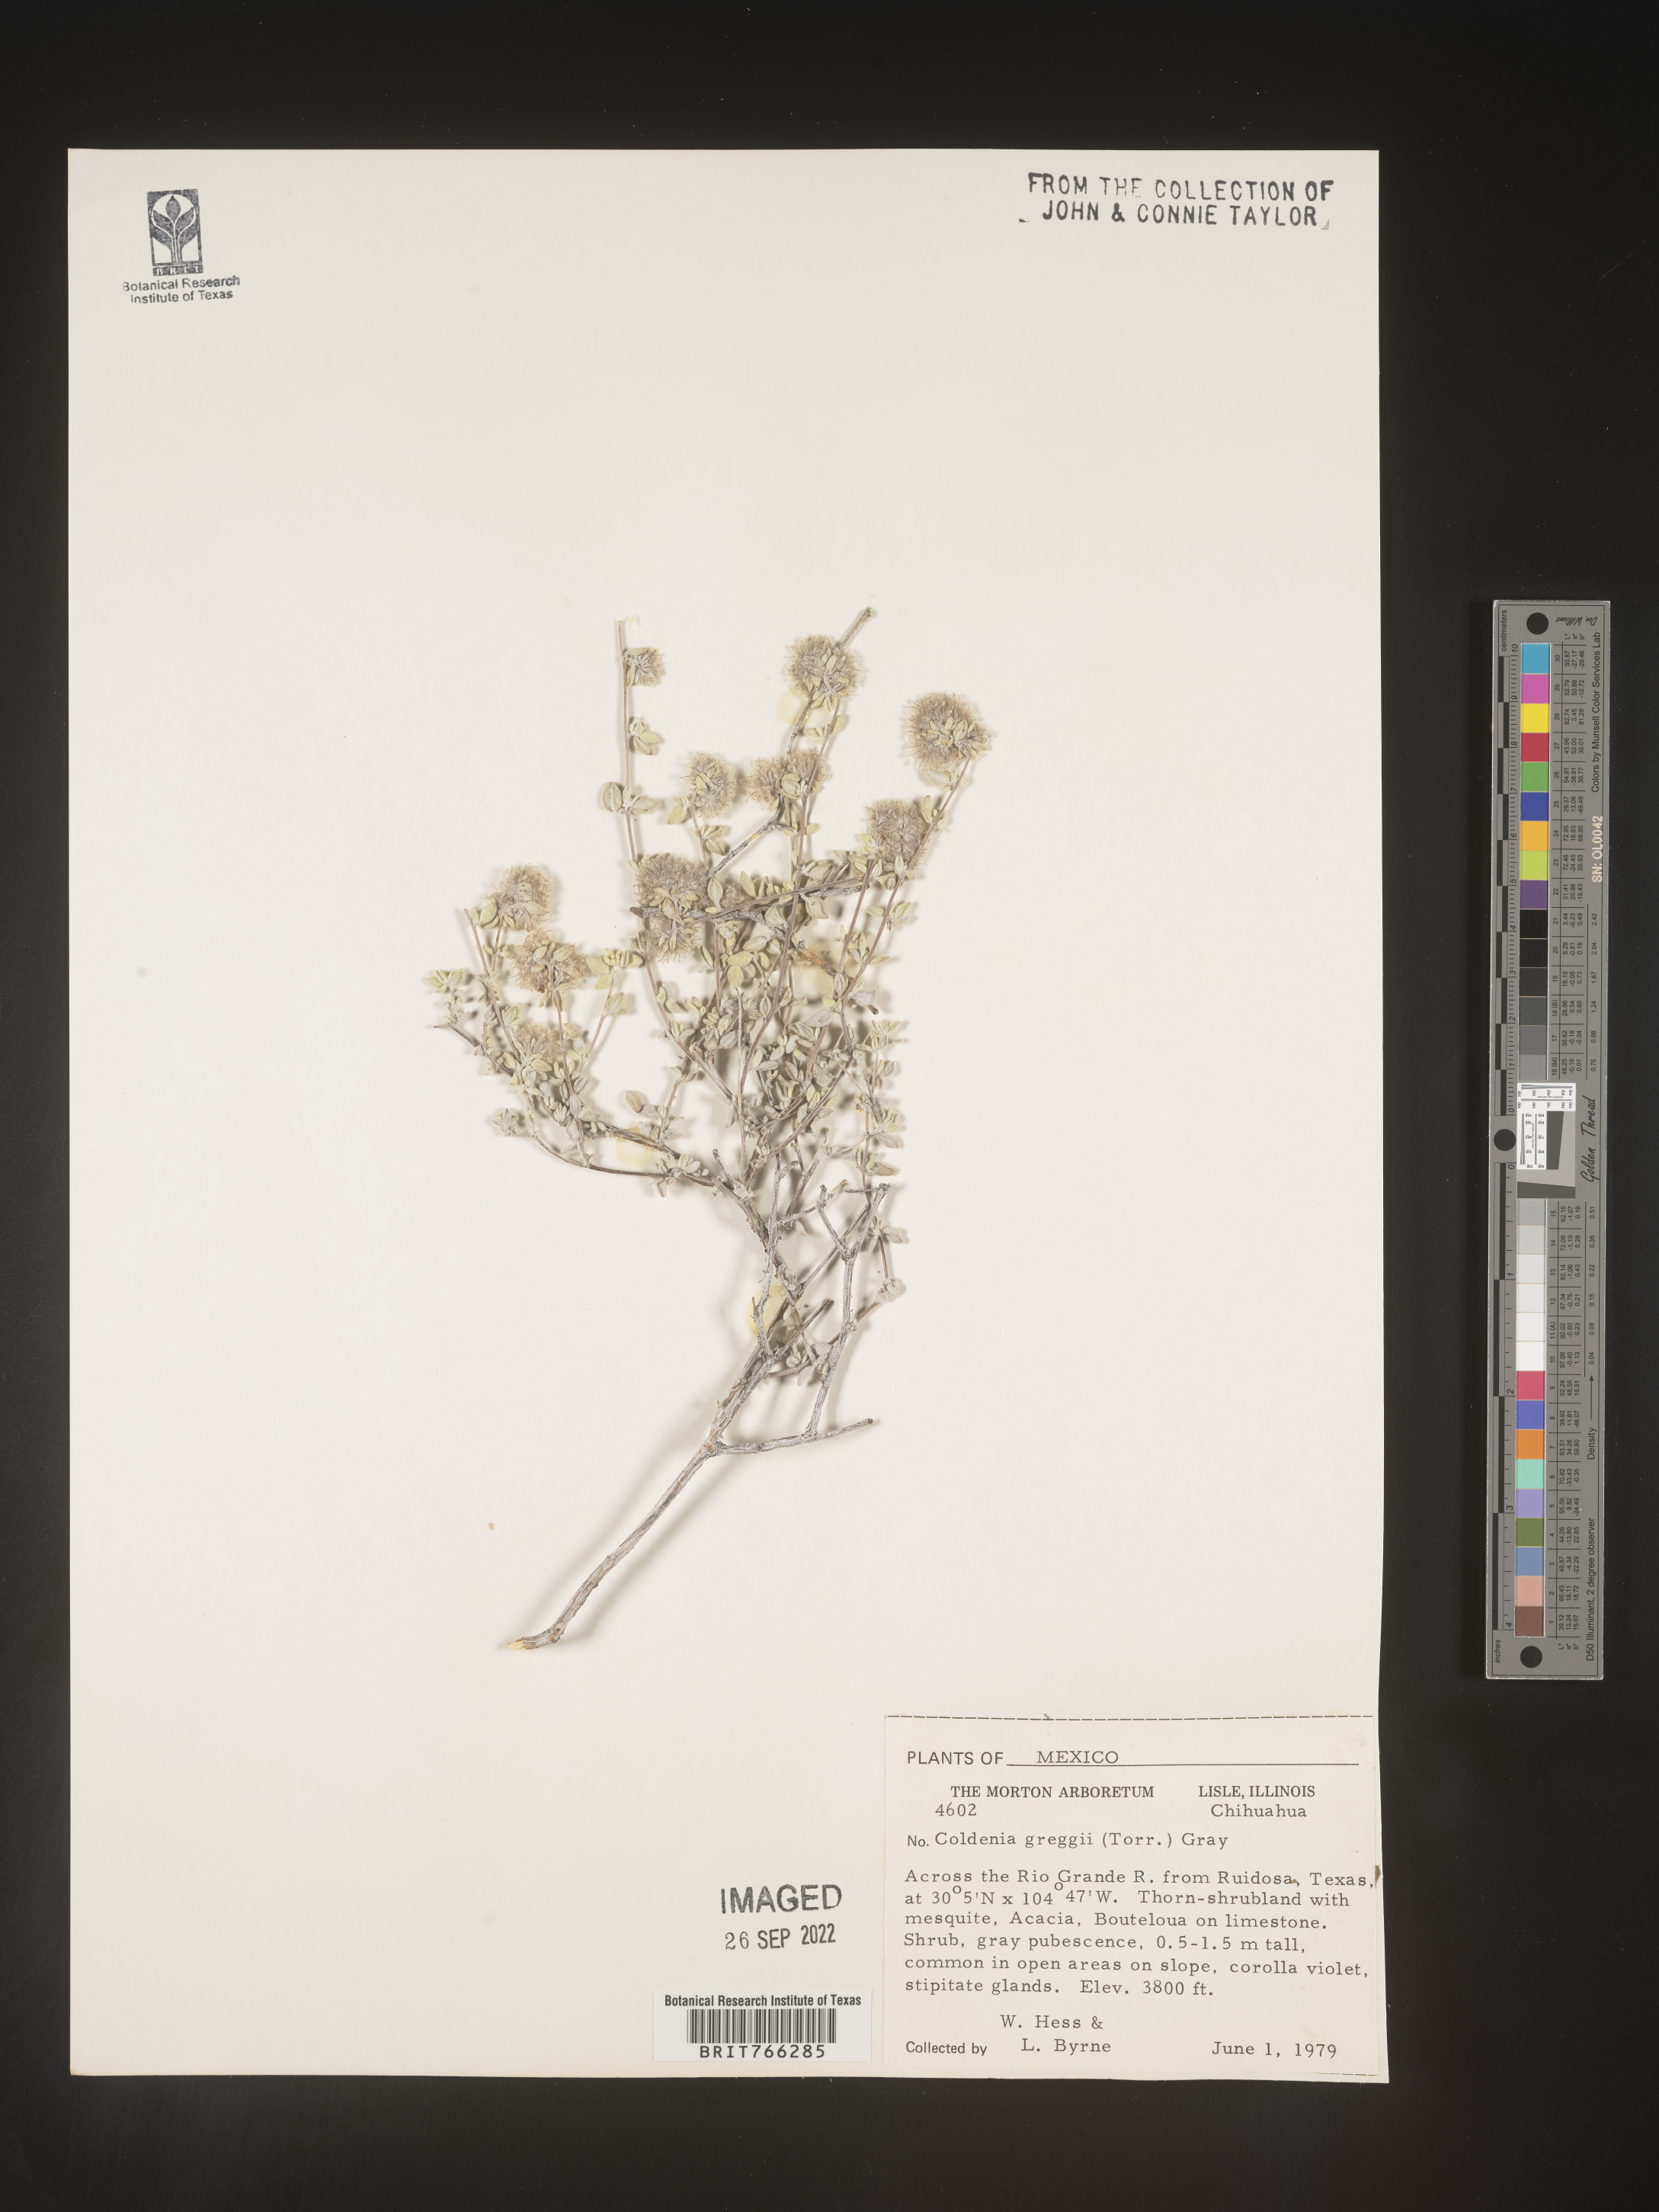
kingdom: Plantae
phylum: Tracheophyta
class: Magnoliopsida
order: Boraginales
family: Coldeniaceae
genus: Coldenia
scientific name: Coldenia
